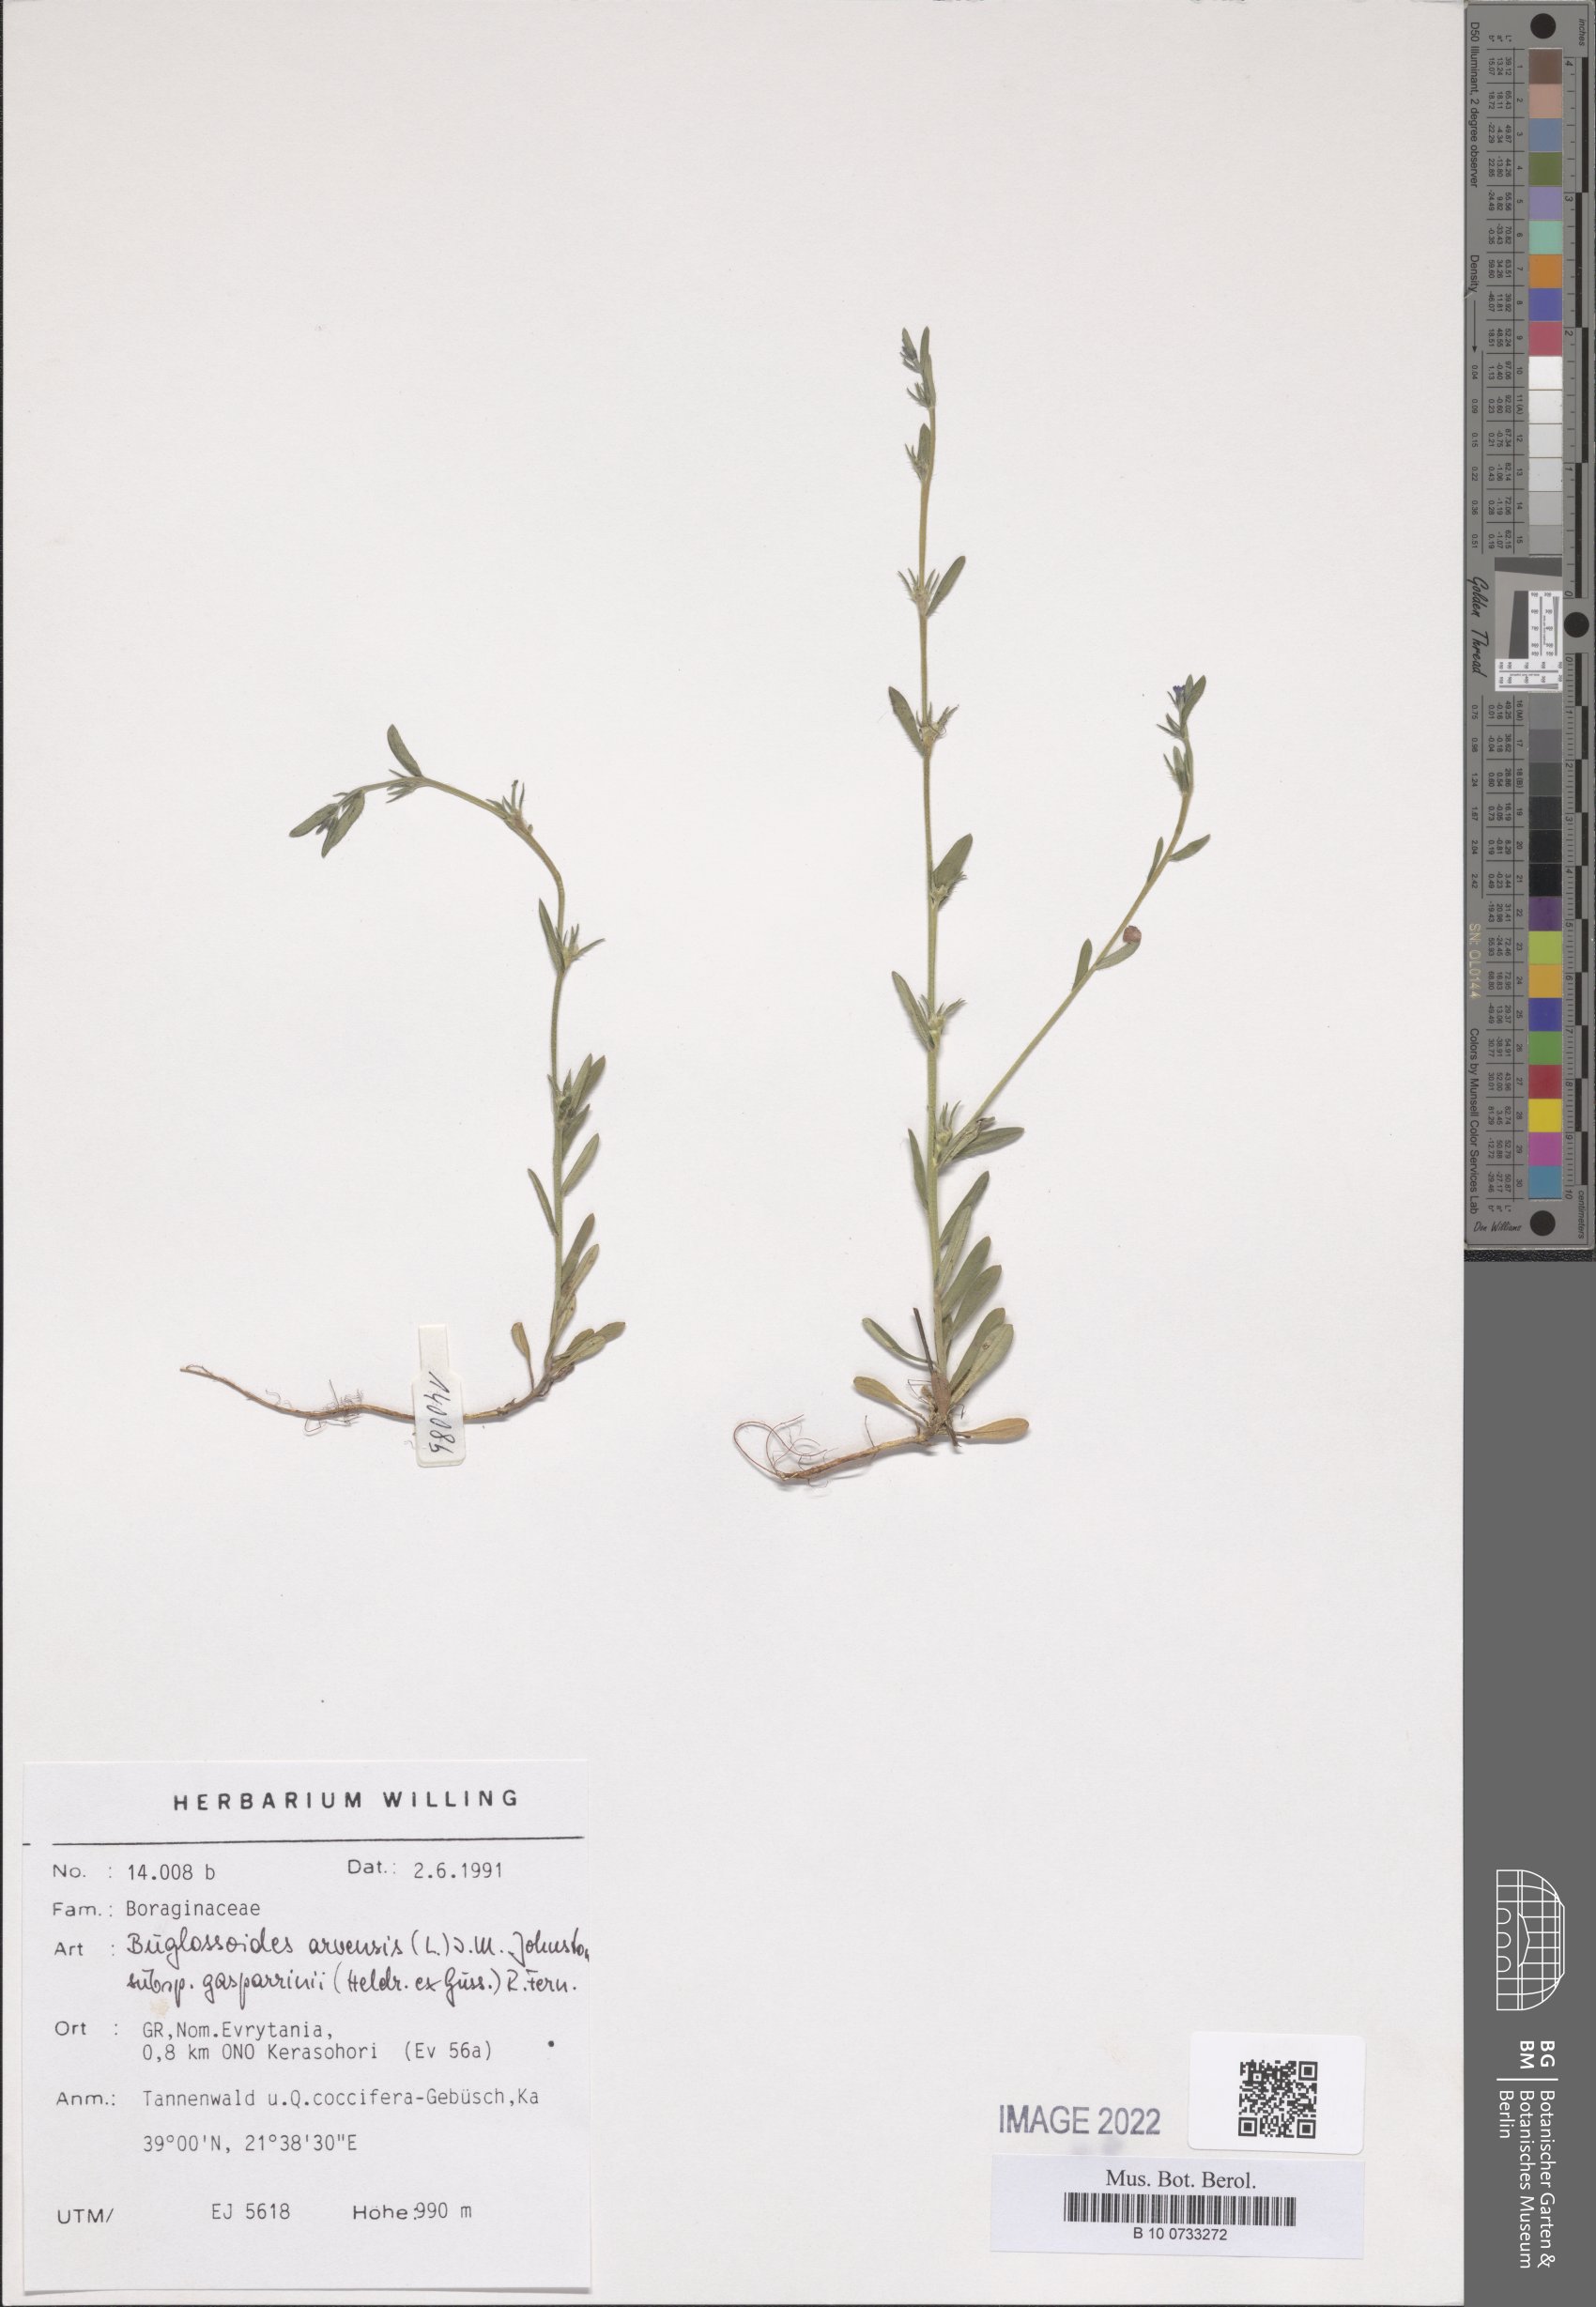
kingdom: Plantae
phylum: Tracheophyta
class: Magnoliopsida
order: Boraginales
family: Boraginaceae
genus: Buglossoides
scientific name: Buglossoides incrassata
